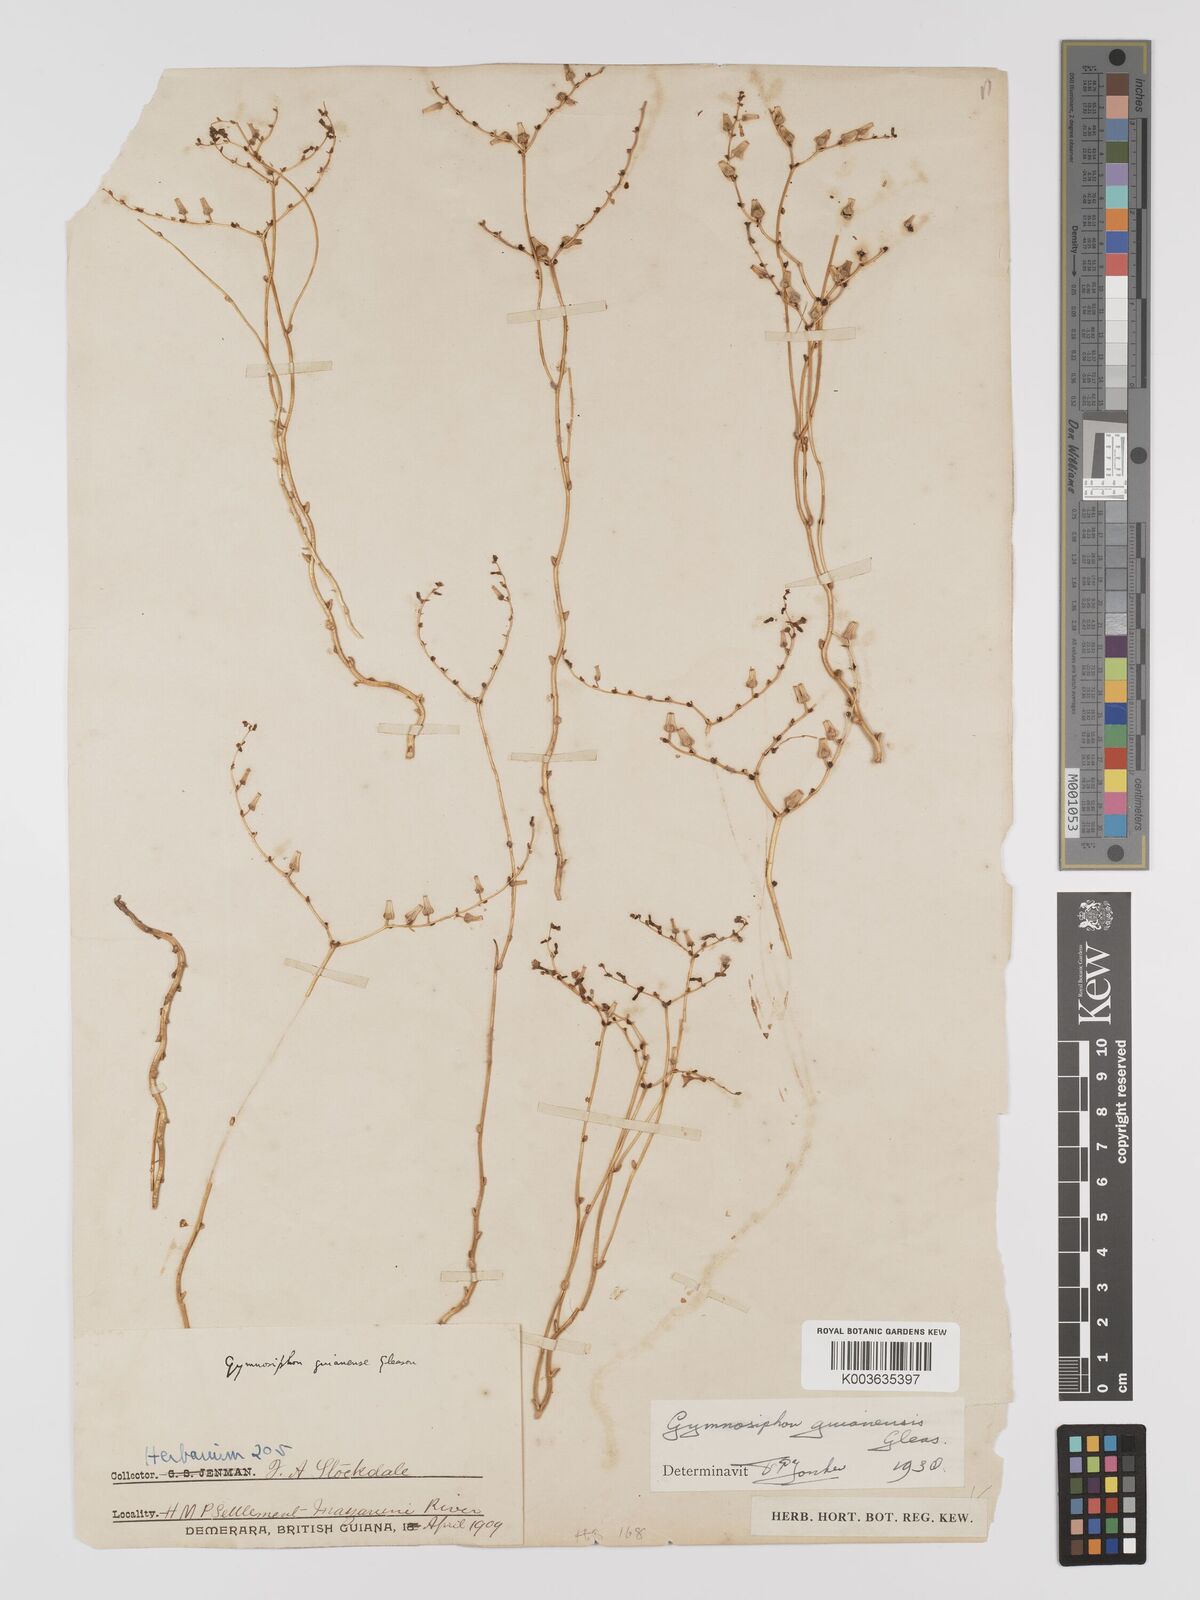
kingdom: Plantae
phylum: Tracheophyta
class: Liliopsida
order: Dioscoreales
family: Burmanniaceae
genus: Gymnosiphon
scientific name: Gymnosiphon guianensis
